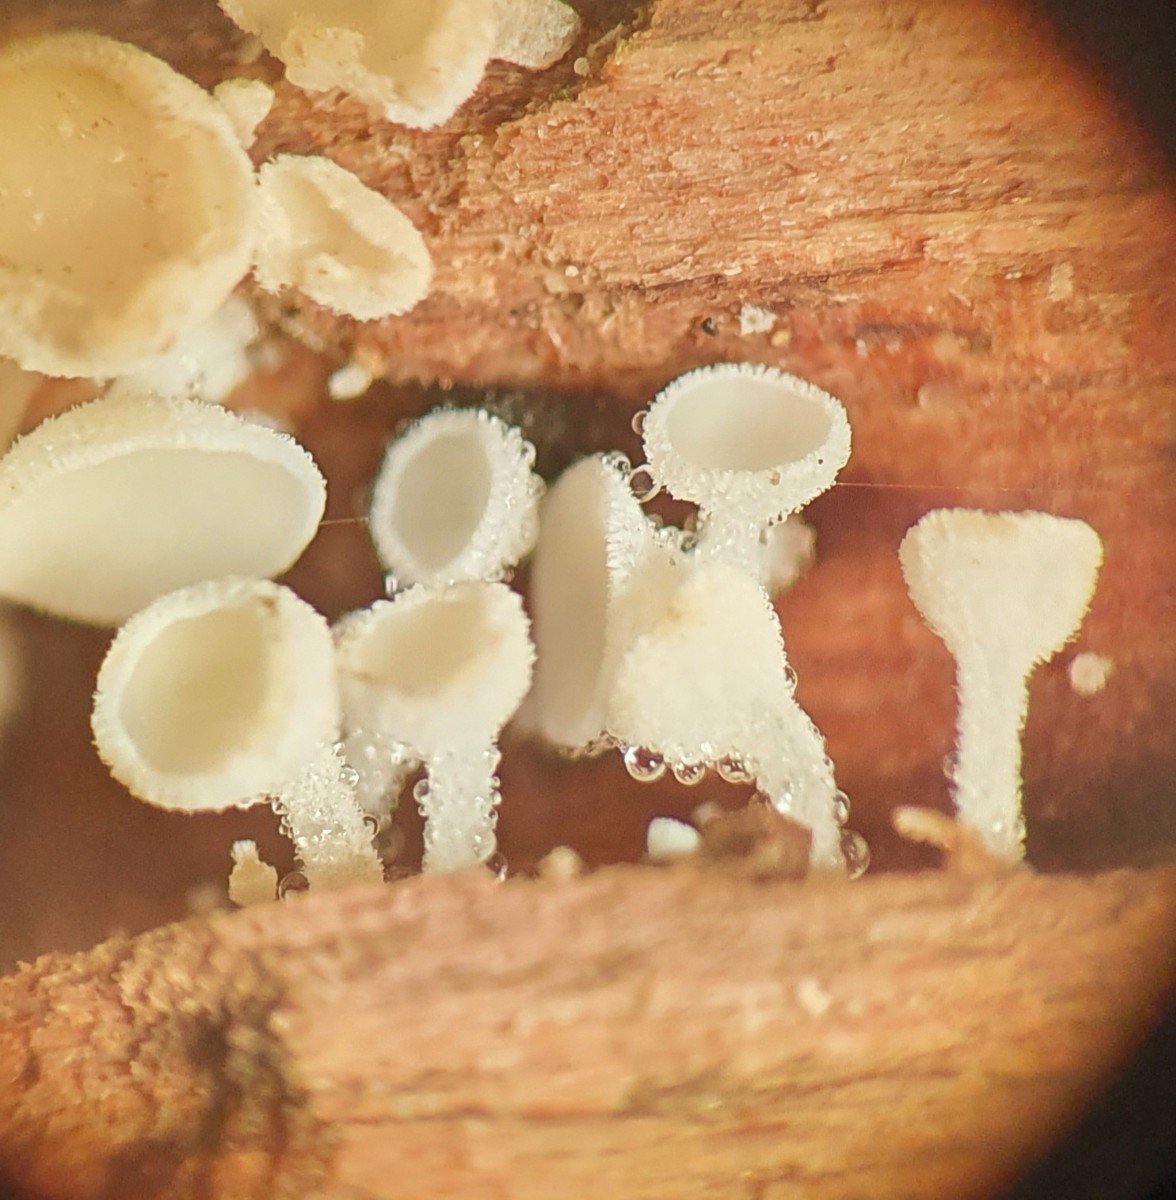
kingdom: Fungi
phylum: Ascomycota
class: Leotiomycetes
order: Helotiales
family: Lachnaceae
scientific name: Lachnaceae
